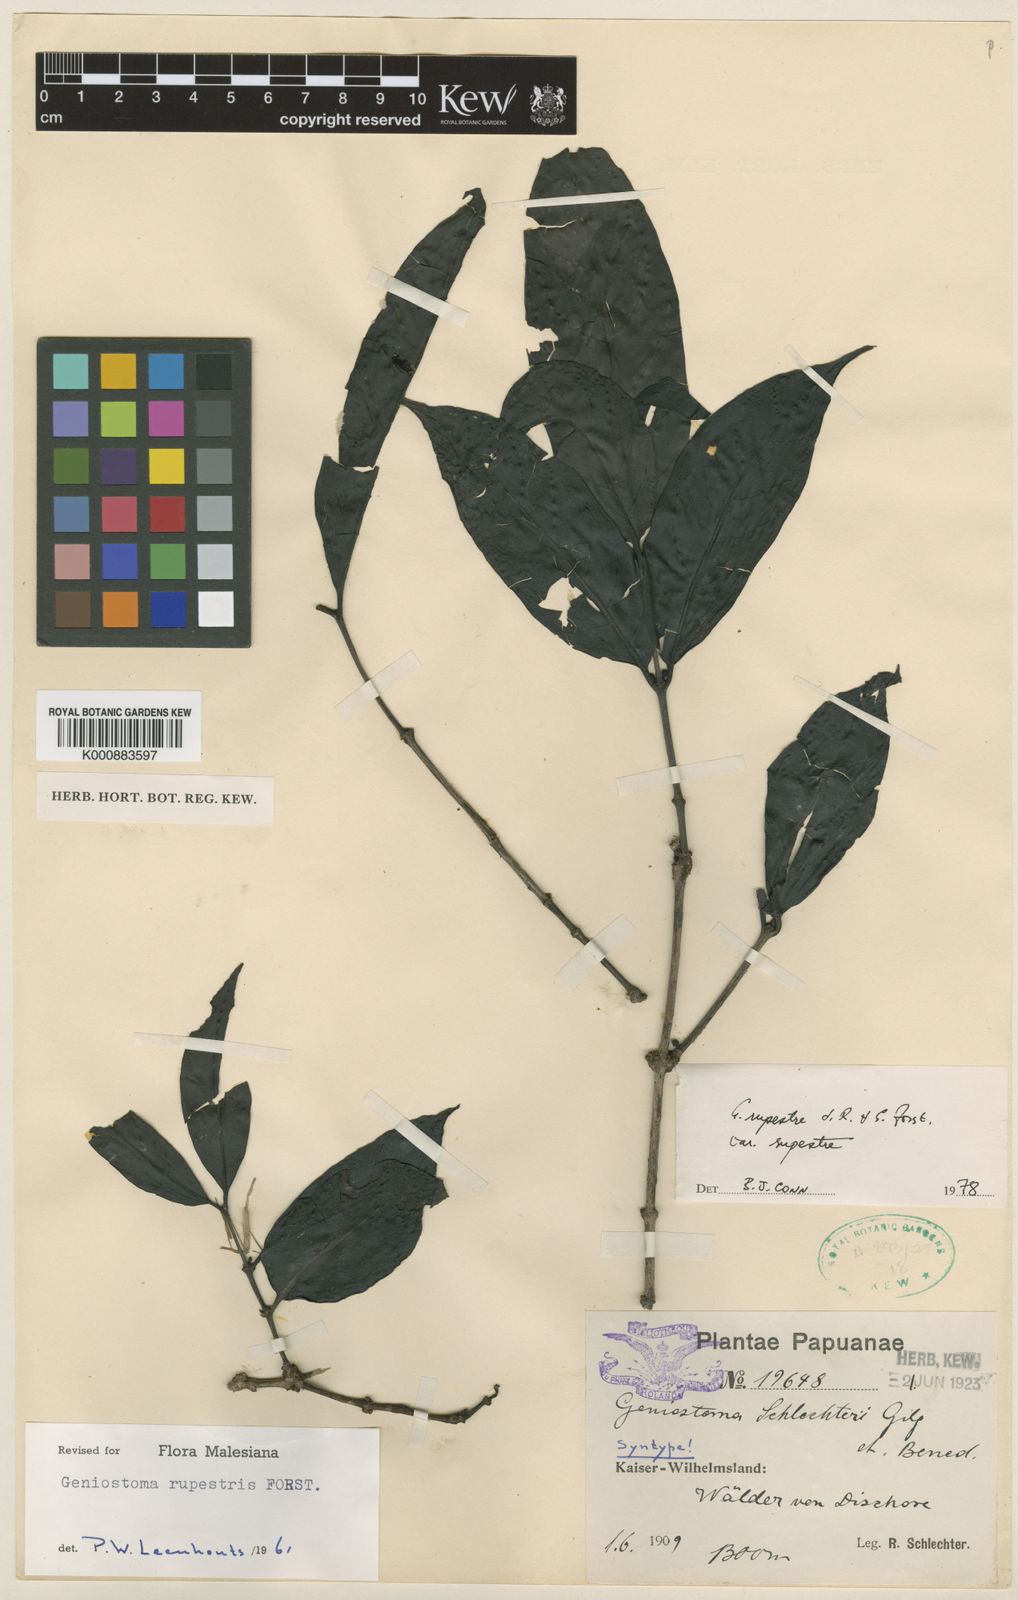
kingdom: Plantae
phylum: Tracheophyta
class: Magnoliopsida
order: Gentianales
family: Loganiaceae
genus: Geniostoma
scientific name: Geniostoma rupestre
